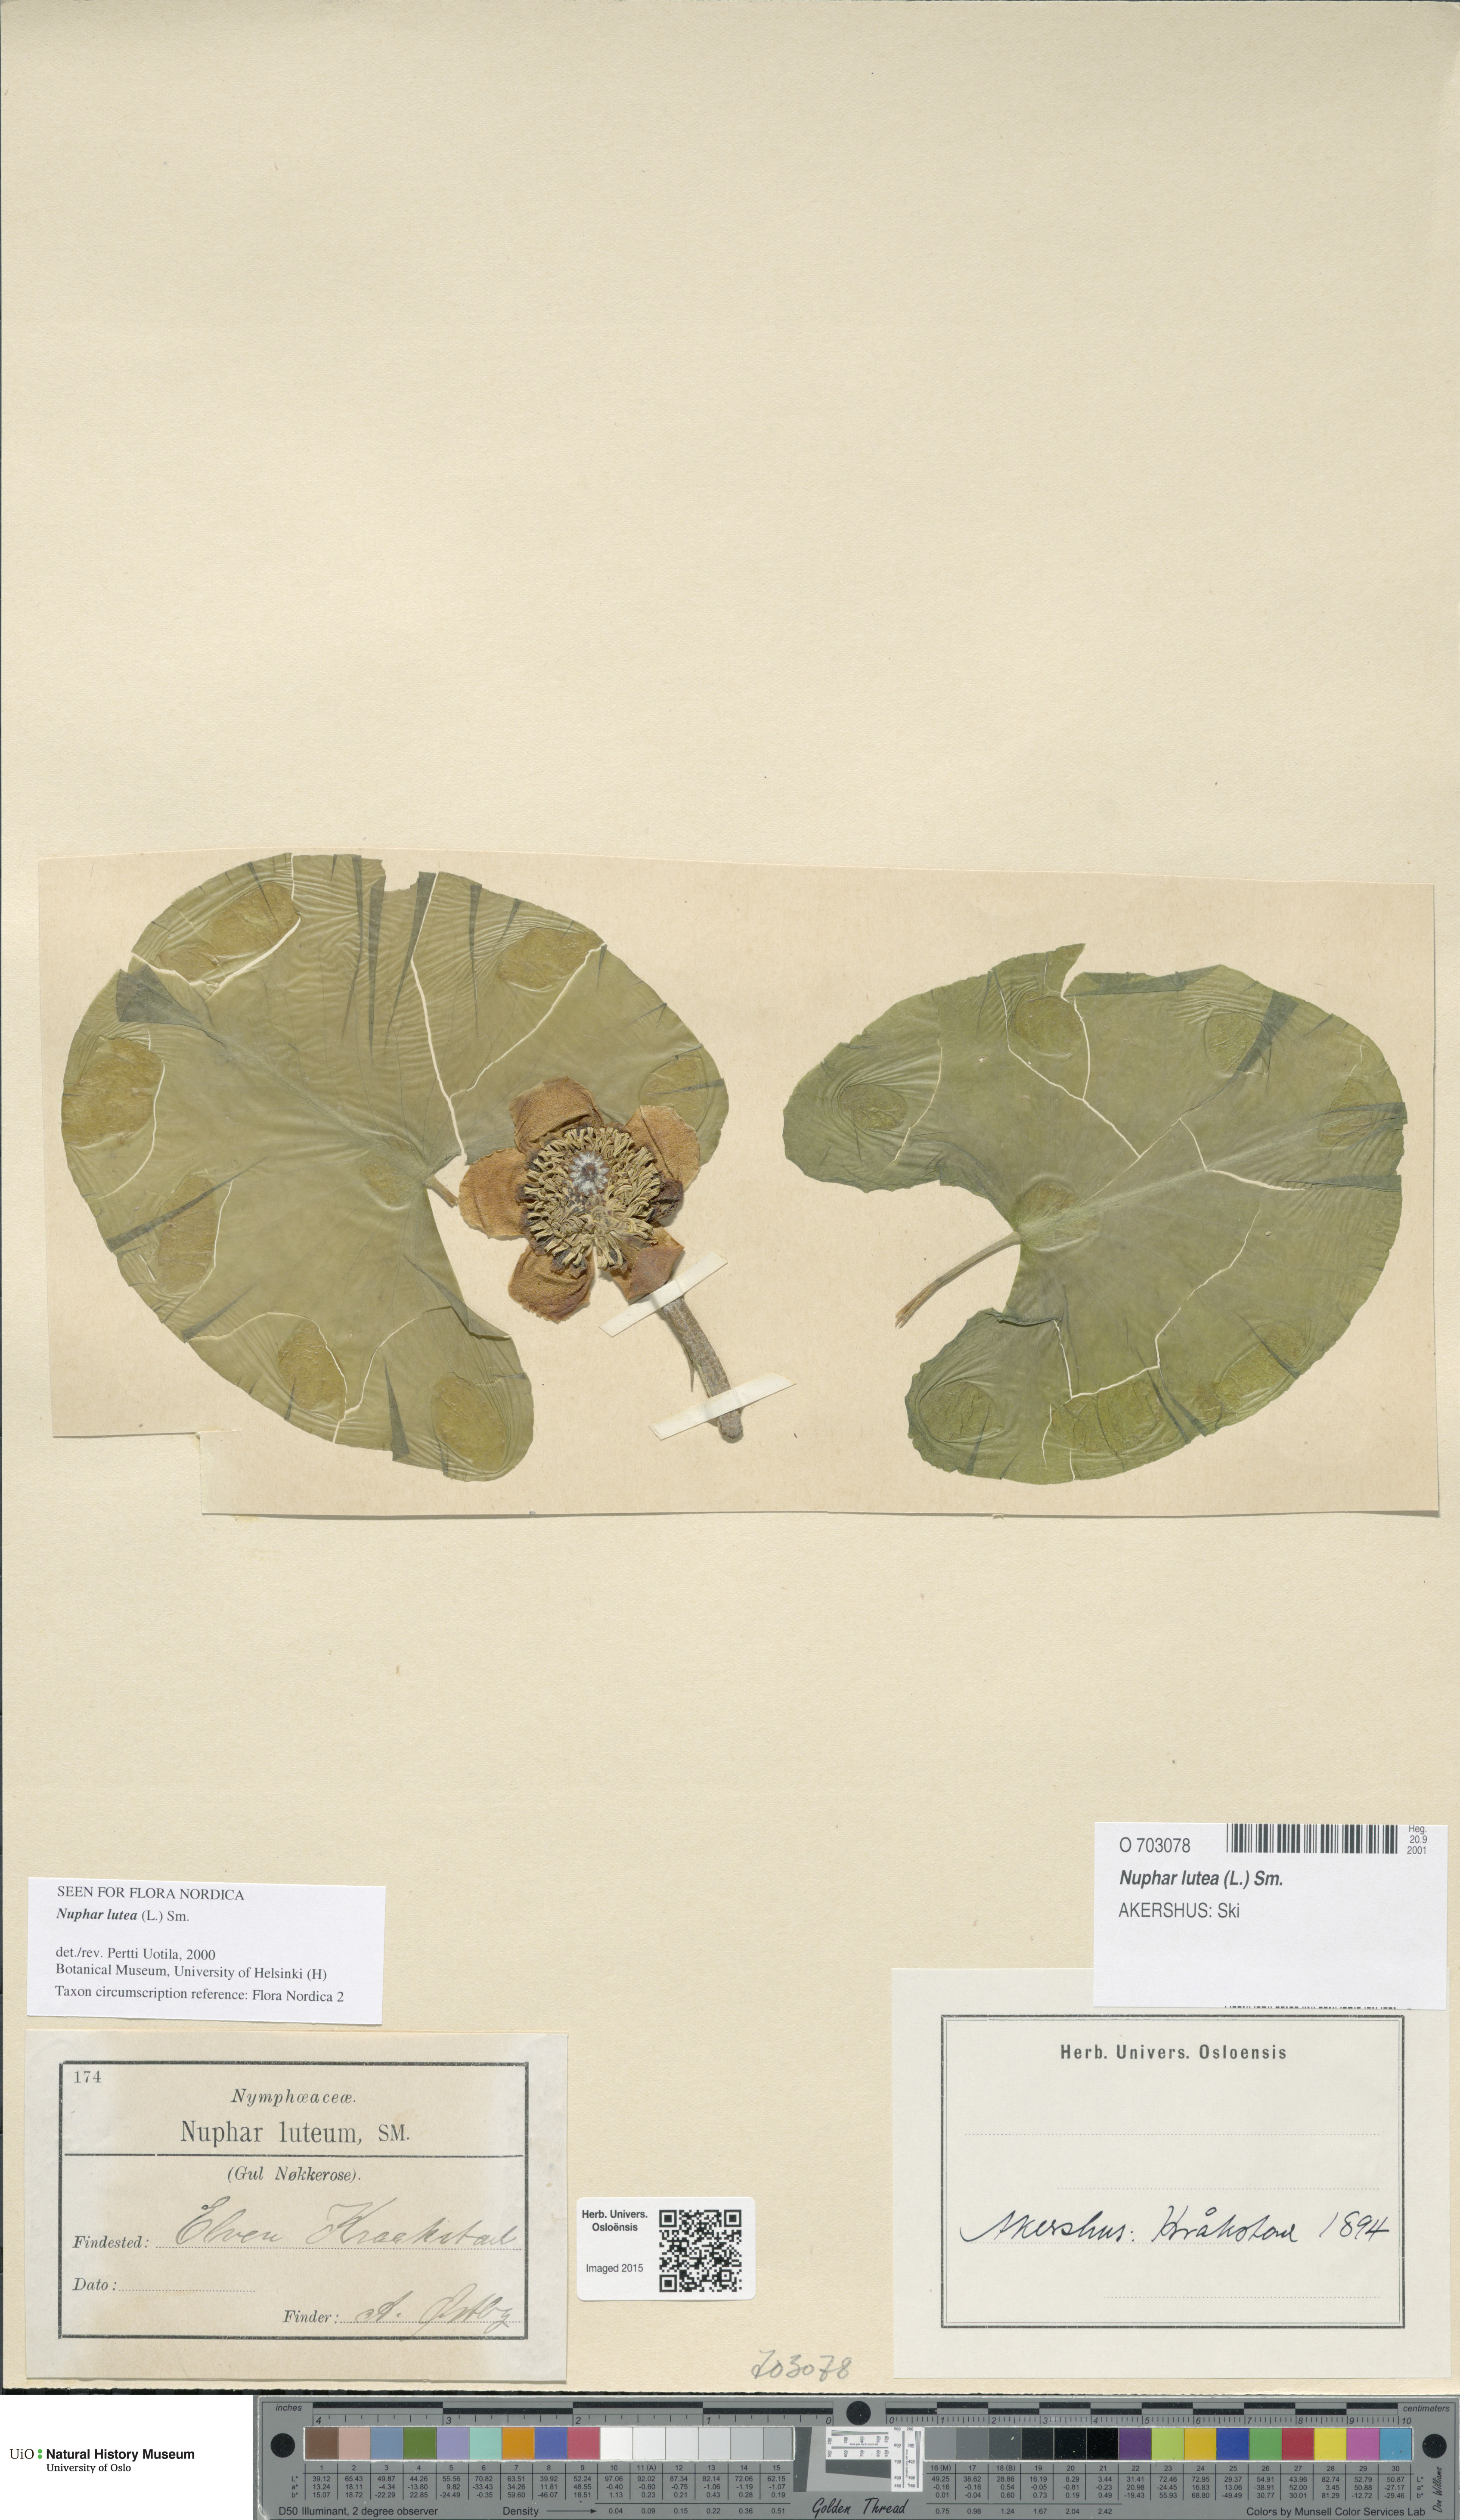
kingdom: Plantae
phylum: Tracheophyta
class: Magnoliopsida
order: Nymphaeales
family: Nymphaeaceae
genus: Nuphar
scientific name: Nuphar lutea
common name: Yellow water-lily
